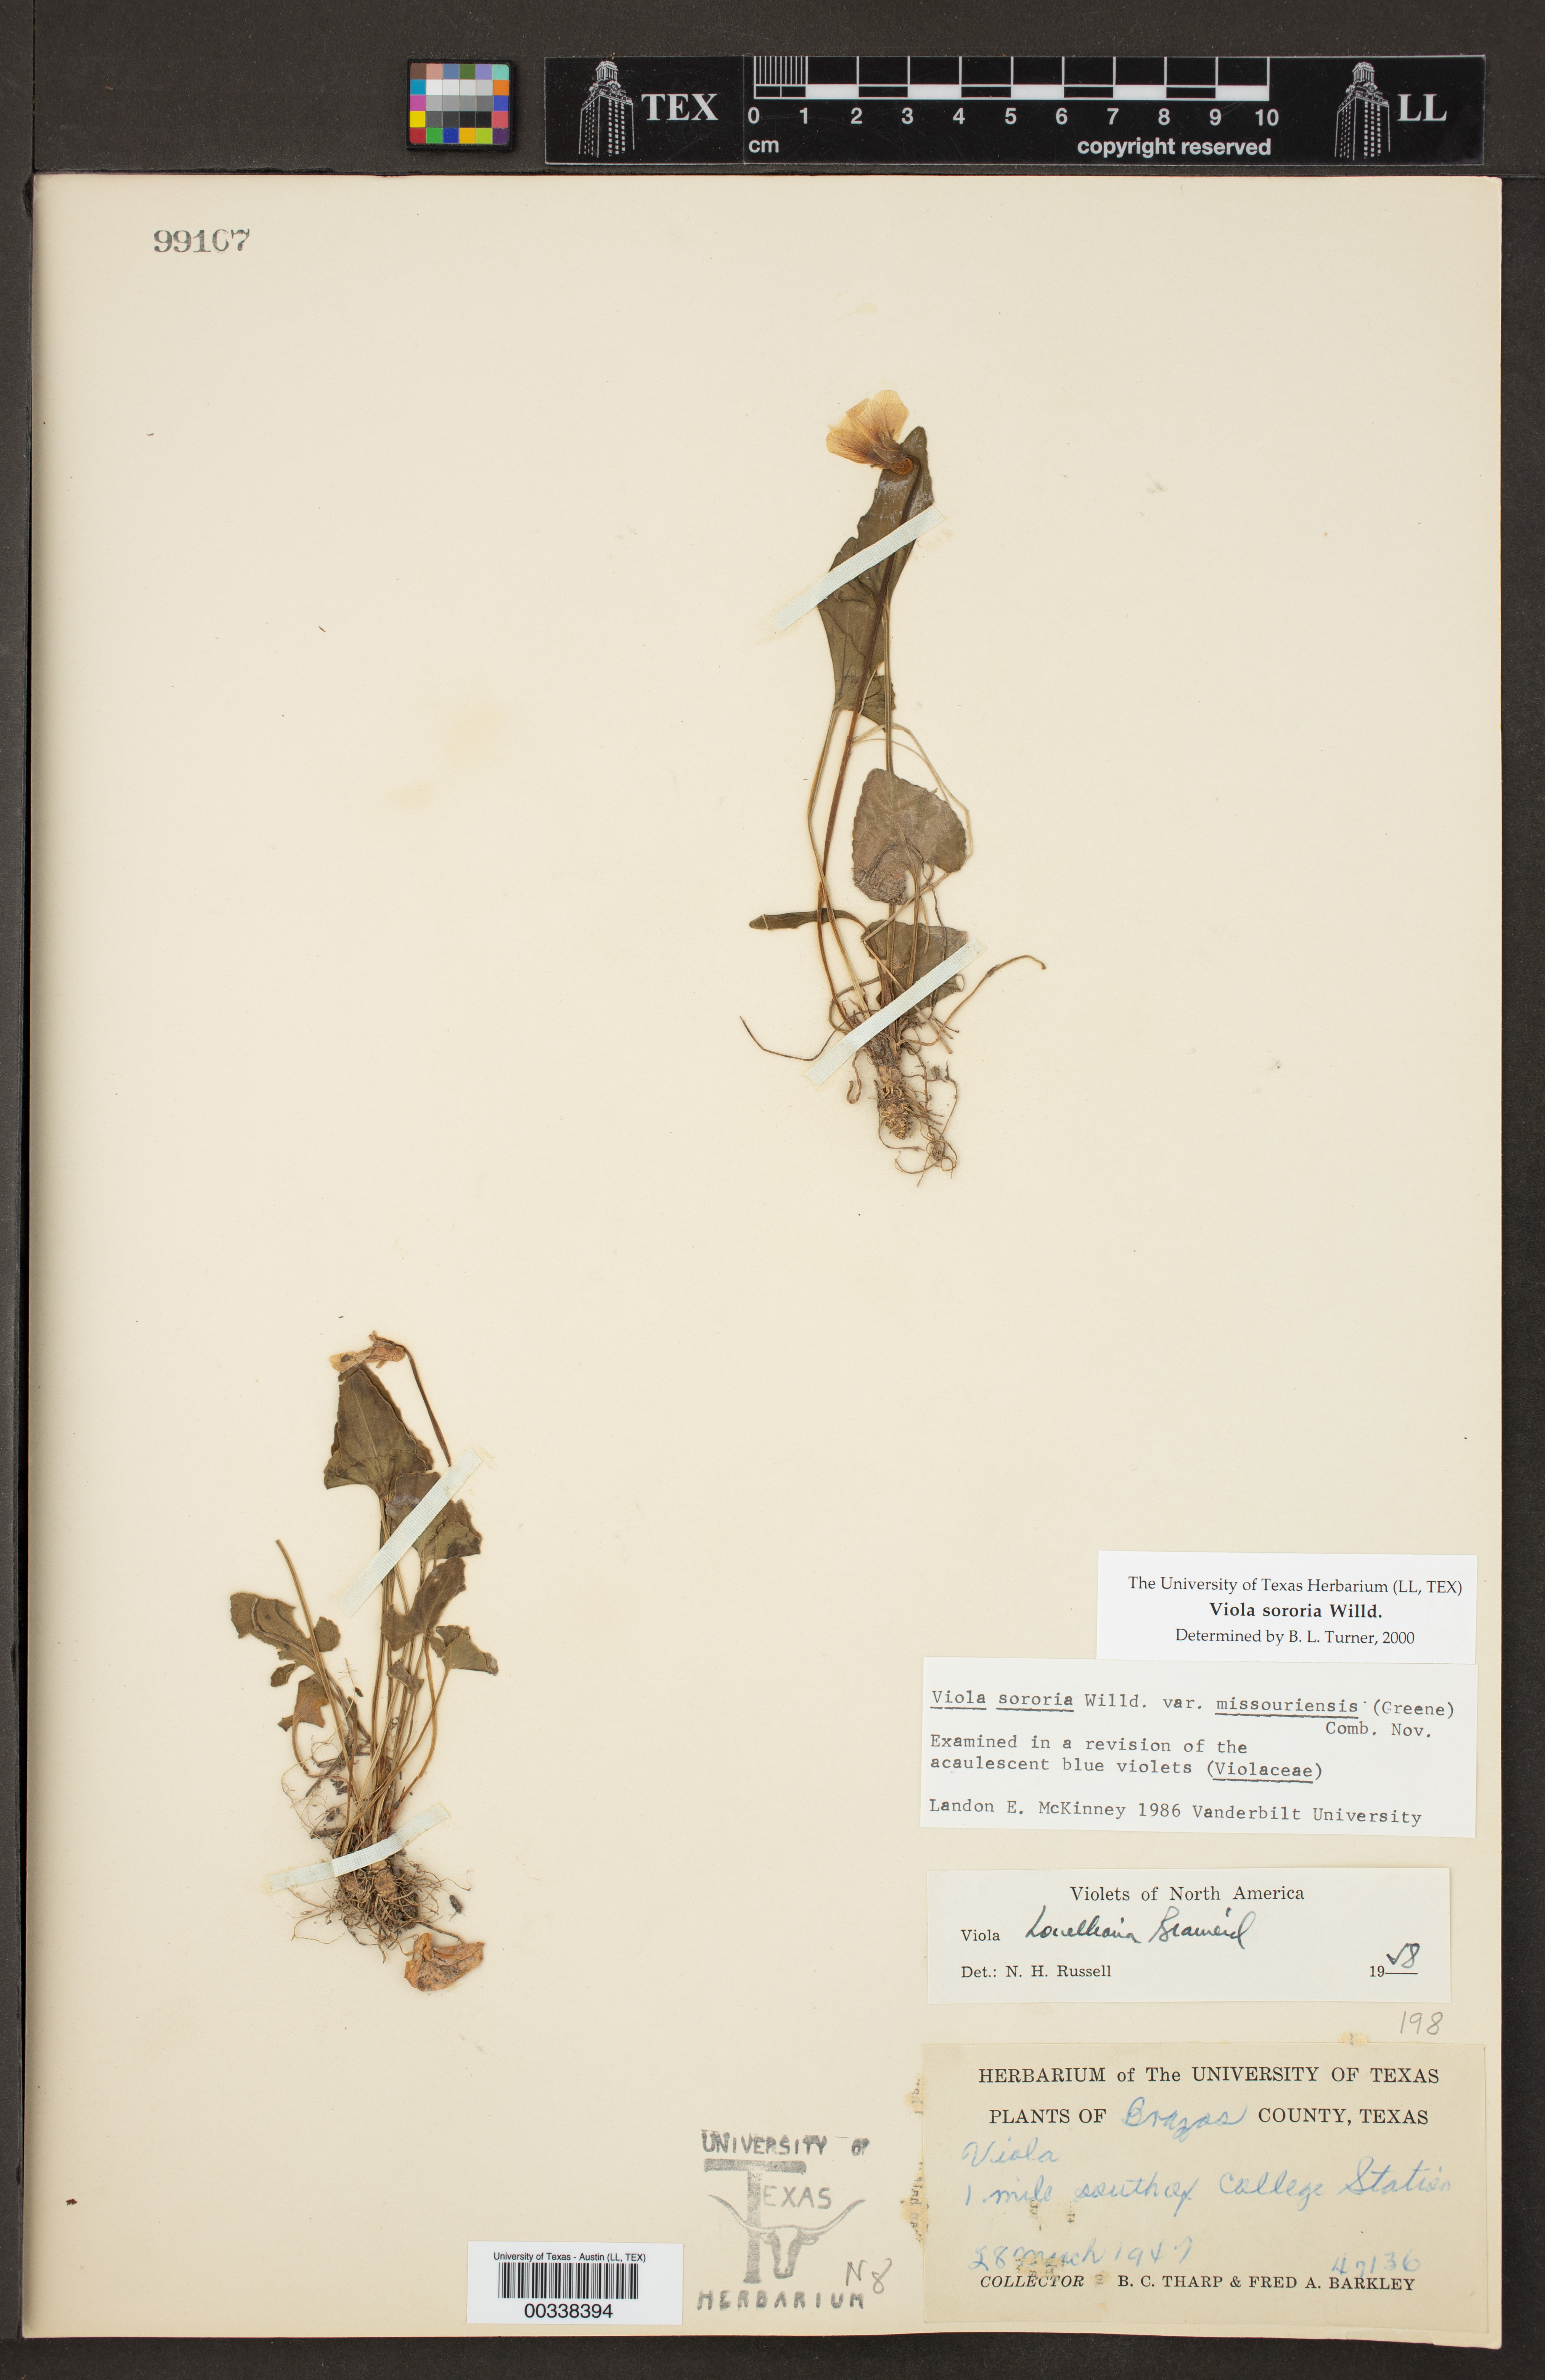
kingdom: Plantae
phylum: Tracheophyta
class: Magnoliopsida
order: Malpighiales
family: Violaceae
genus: Viola
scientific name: Viola sororia
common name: Dooryard violet
